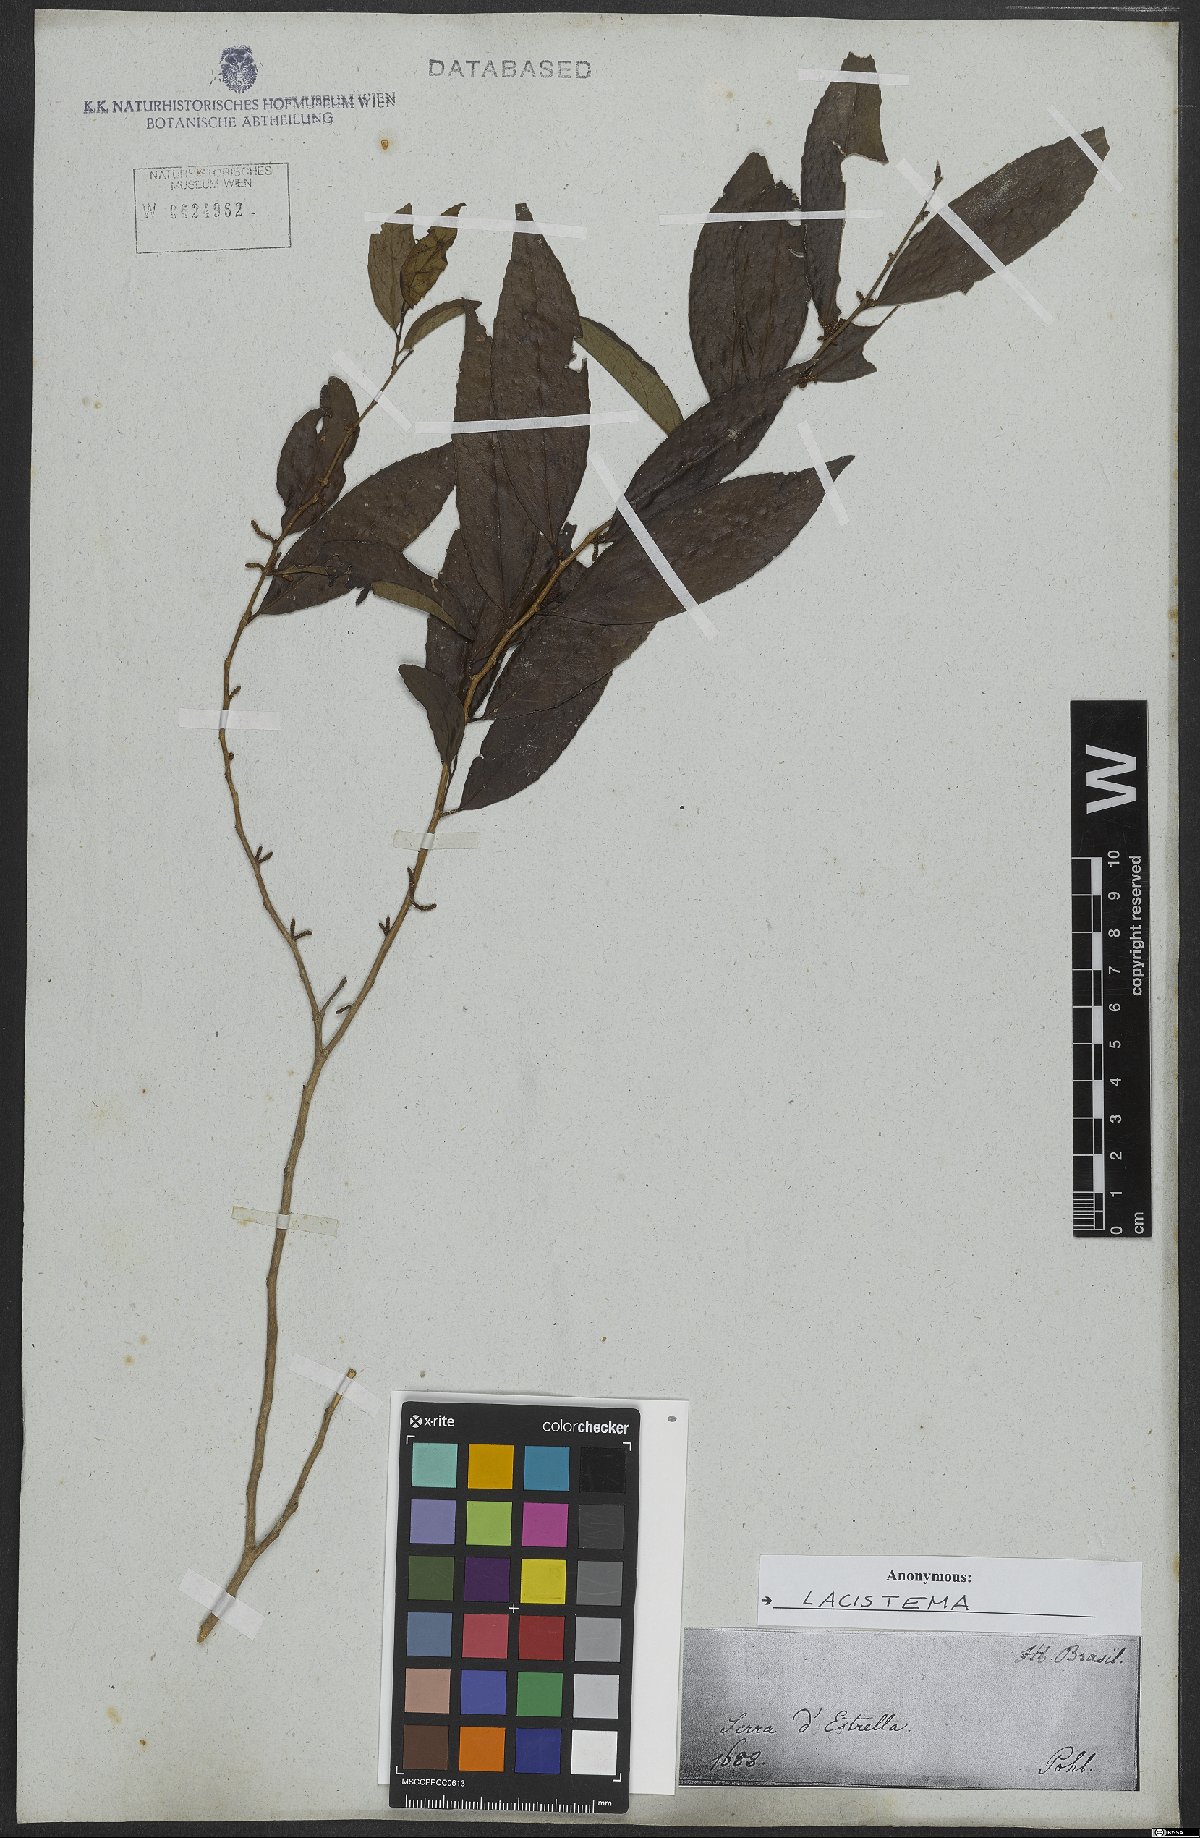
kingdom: Plantae
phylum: Tracheophyta
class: Magnoliopsida
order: Malpighiales
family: Lacistemataceae
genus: Lacistema
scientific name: Lacistema
